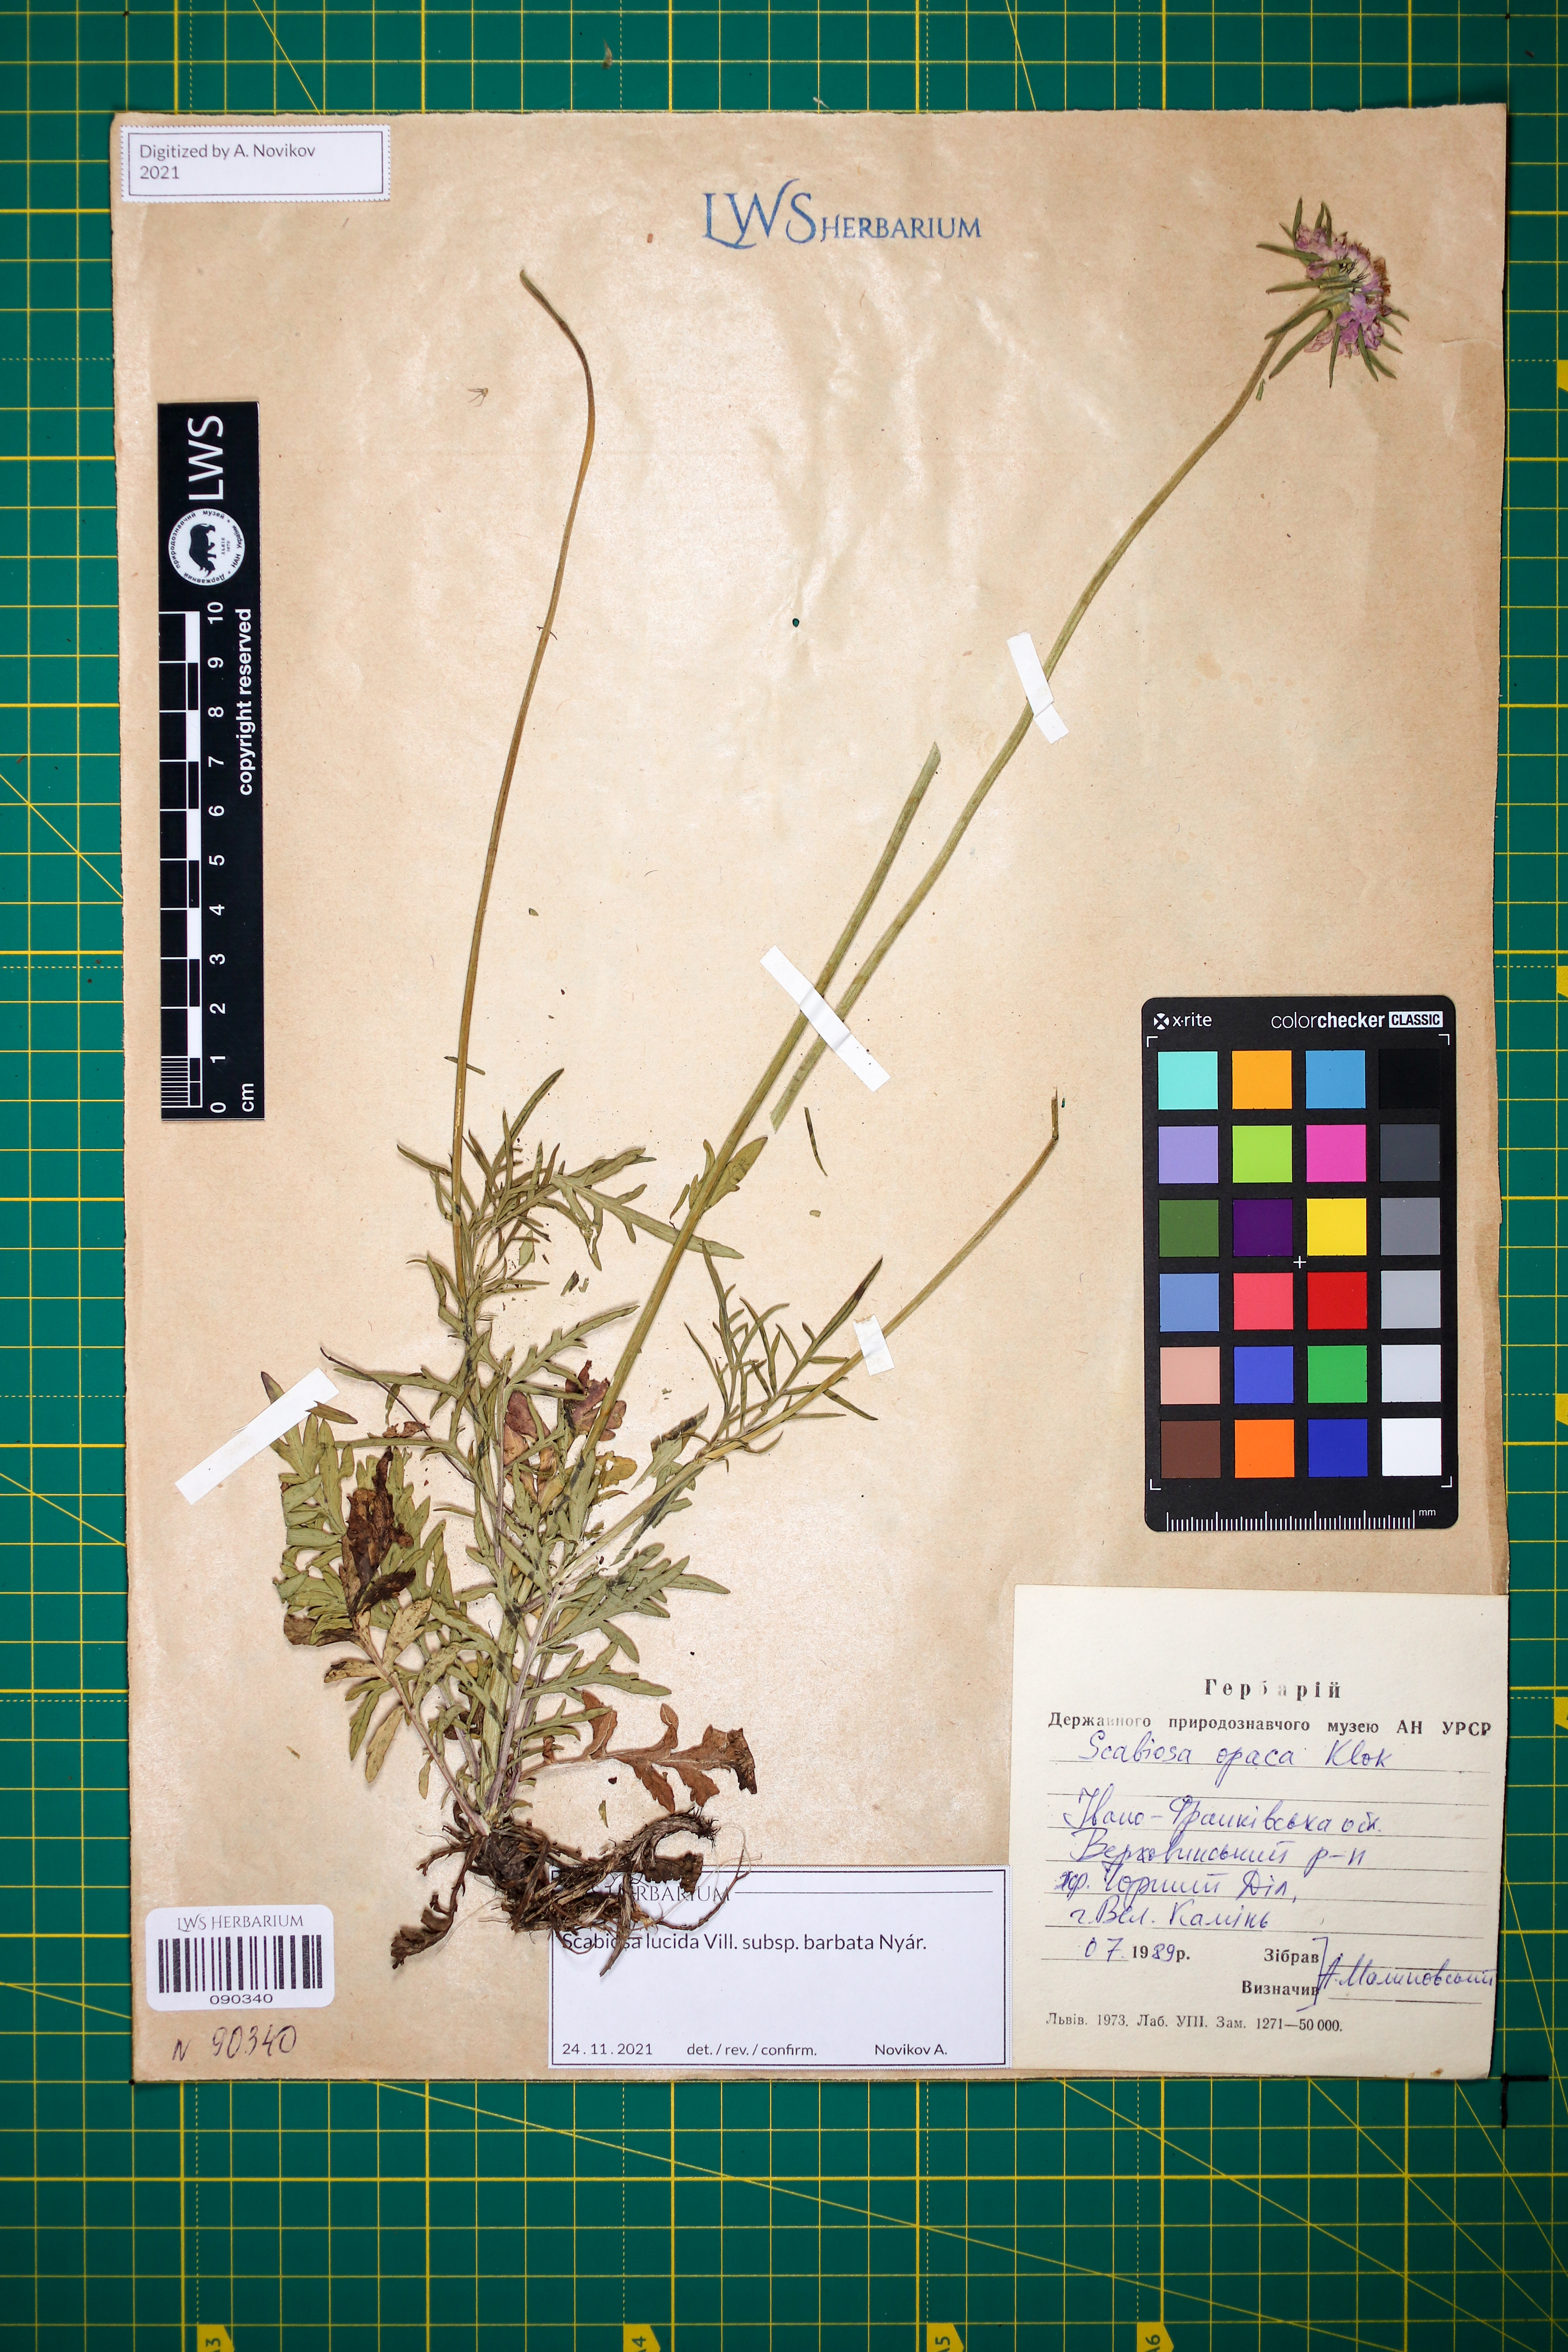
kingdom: Plantae
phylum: Tracheophyta
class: Magnoliopsida
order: Dipsacales
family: Caprifoliaceae
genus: Scabiosa
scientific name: Scabiosa lucida
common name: Shining scabious
